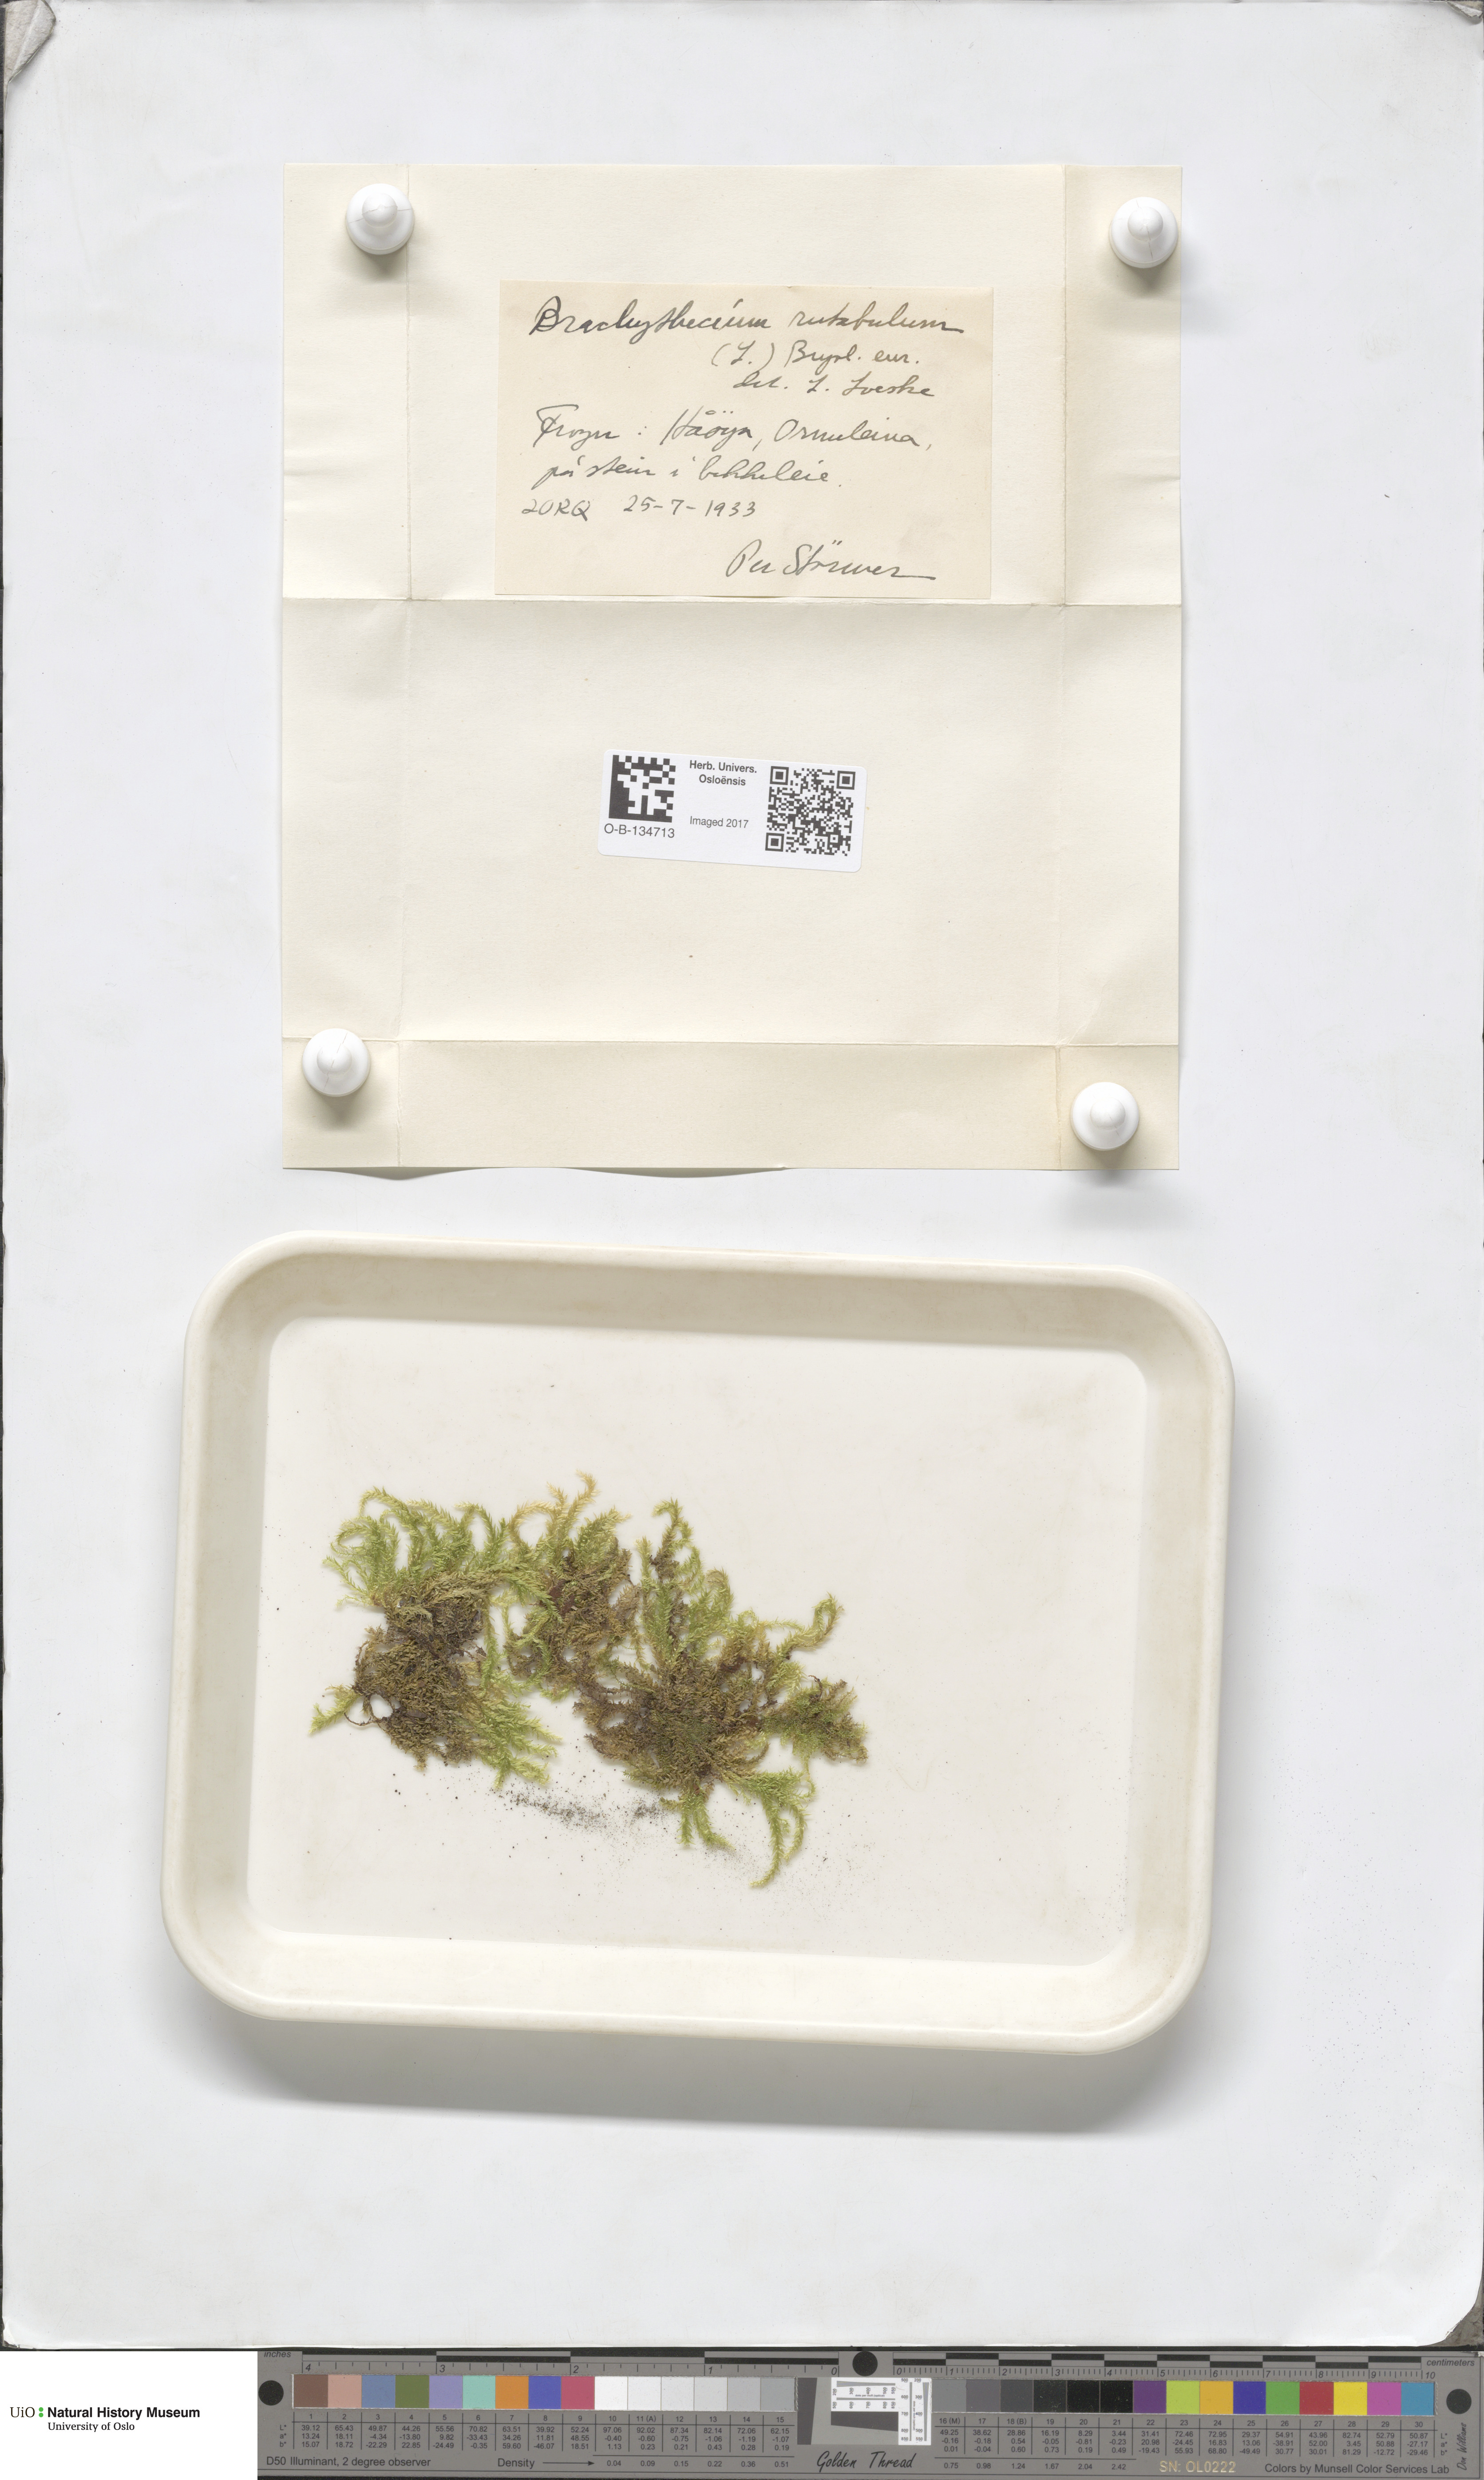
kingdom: Plantae
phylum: Bryophyta
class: Bryopsida
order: Hypnales
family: Brachytheciaceae
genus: Brachythecium
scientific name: Brachythecium rutabulum
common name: Rough-stalked feather-moss
